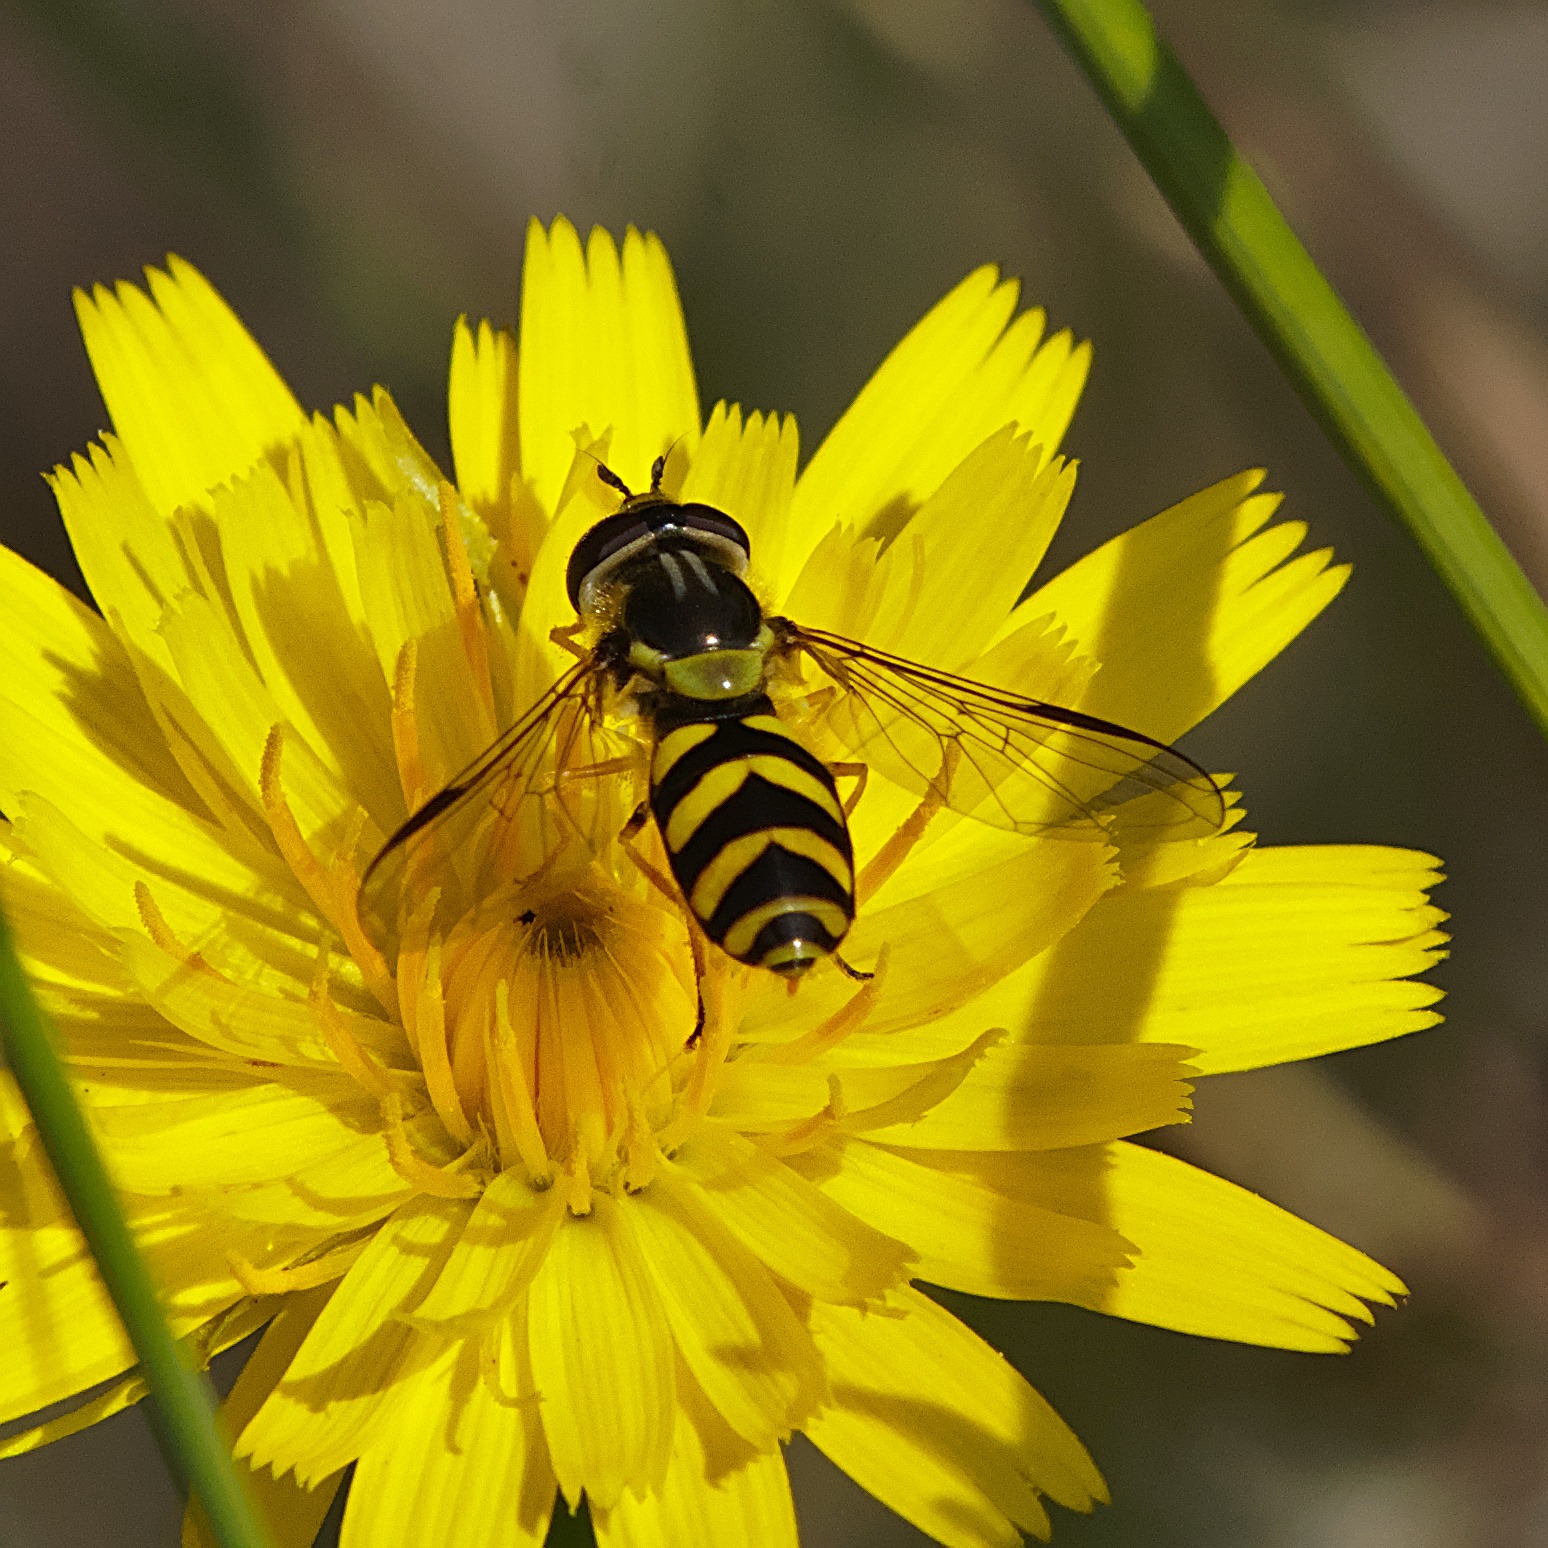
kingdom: Animalia
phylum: Arthropoda
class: Insecta
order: Diptera
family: Syrphidae
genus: Dasysyrphus
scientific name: Dasysyrphus albostriatus
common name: Stribet skovsvirreflue
